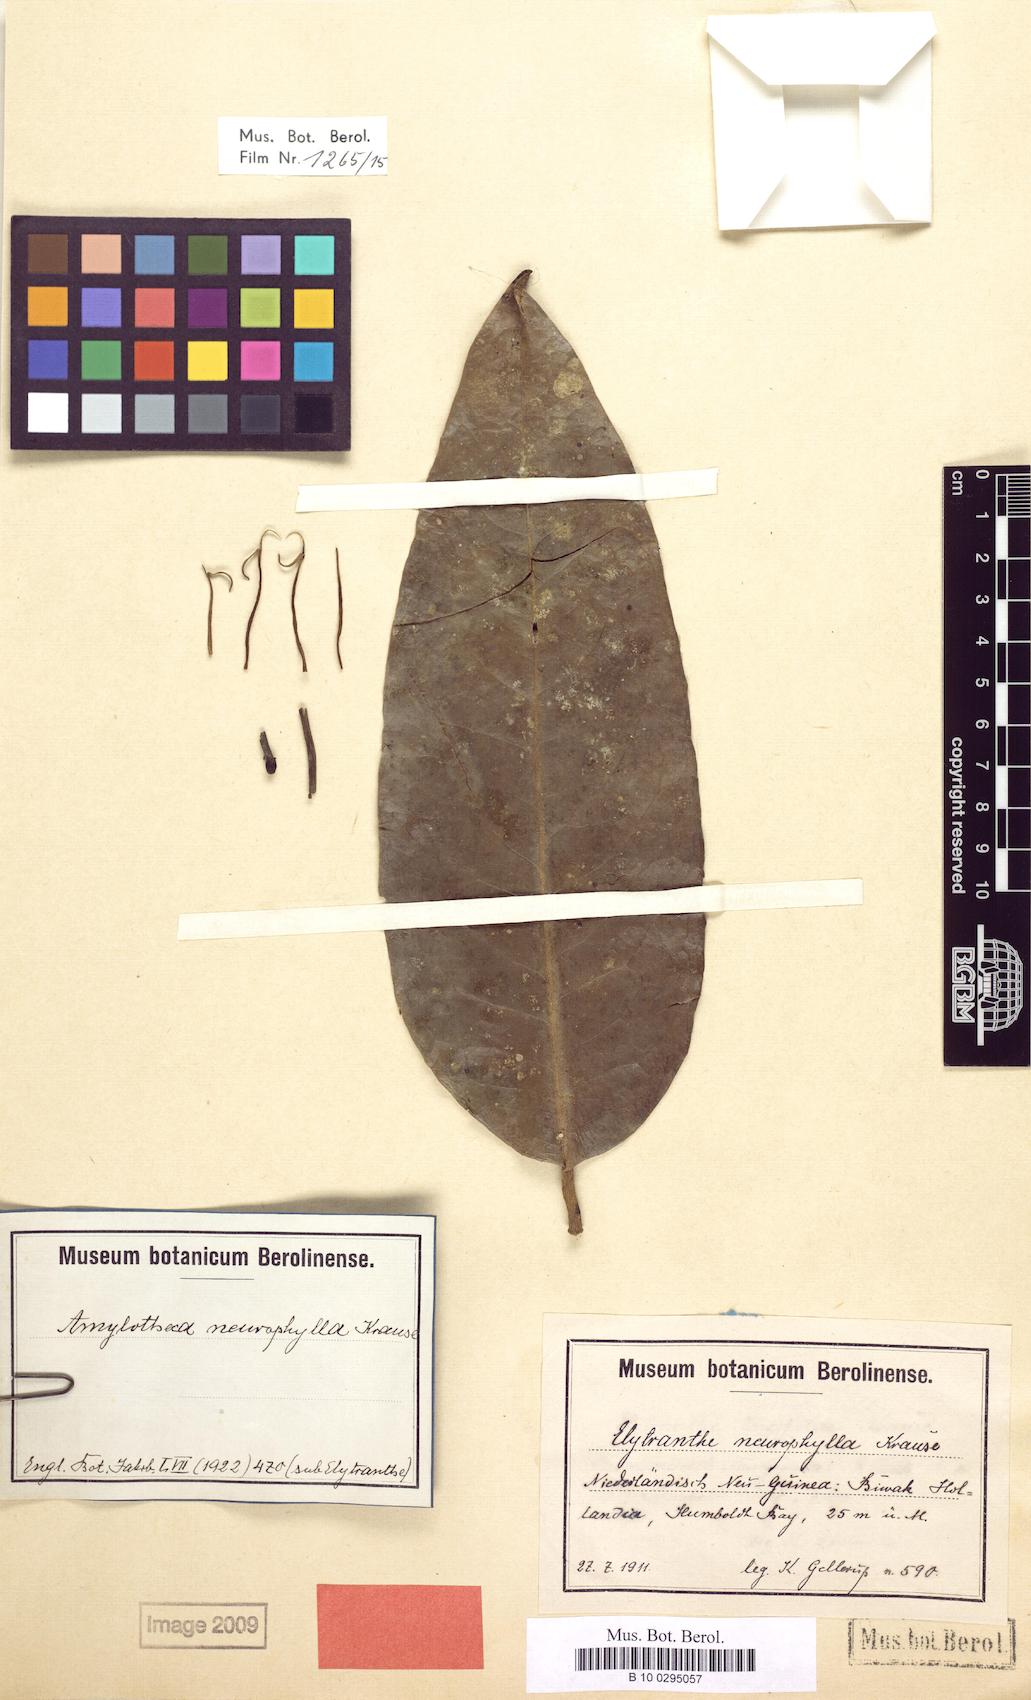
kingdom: Plantae
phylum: Tracheophyta
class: Magnoliopsida
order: Santalales
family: Loranthaceae
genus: Decaisnina
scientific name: Decaisnina hollrungii
